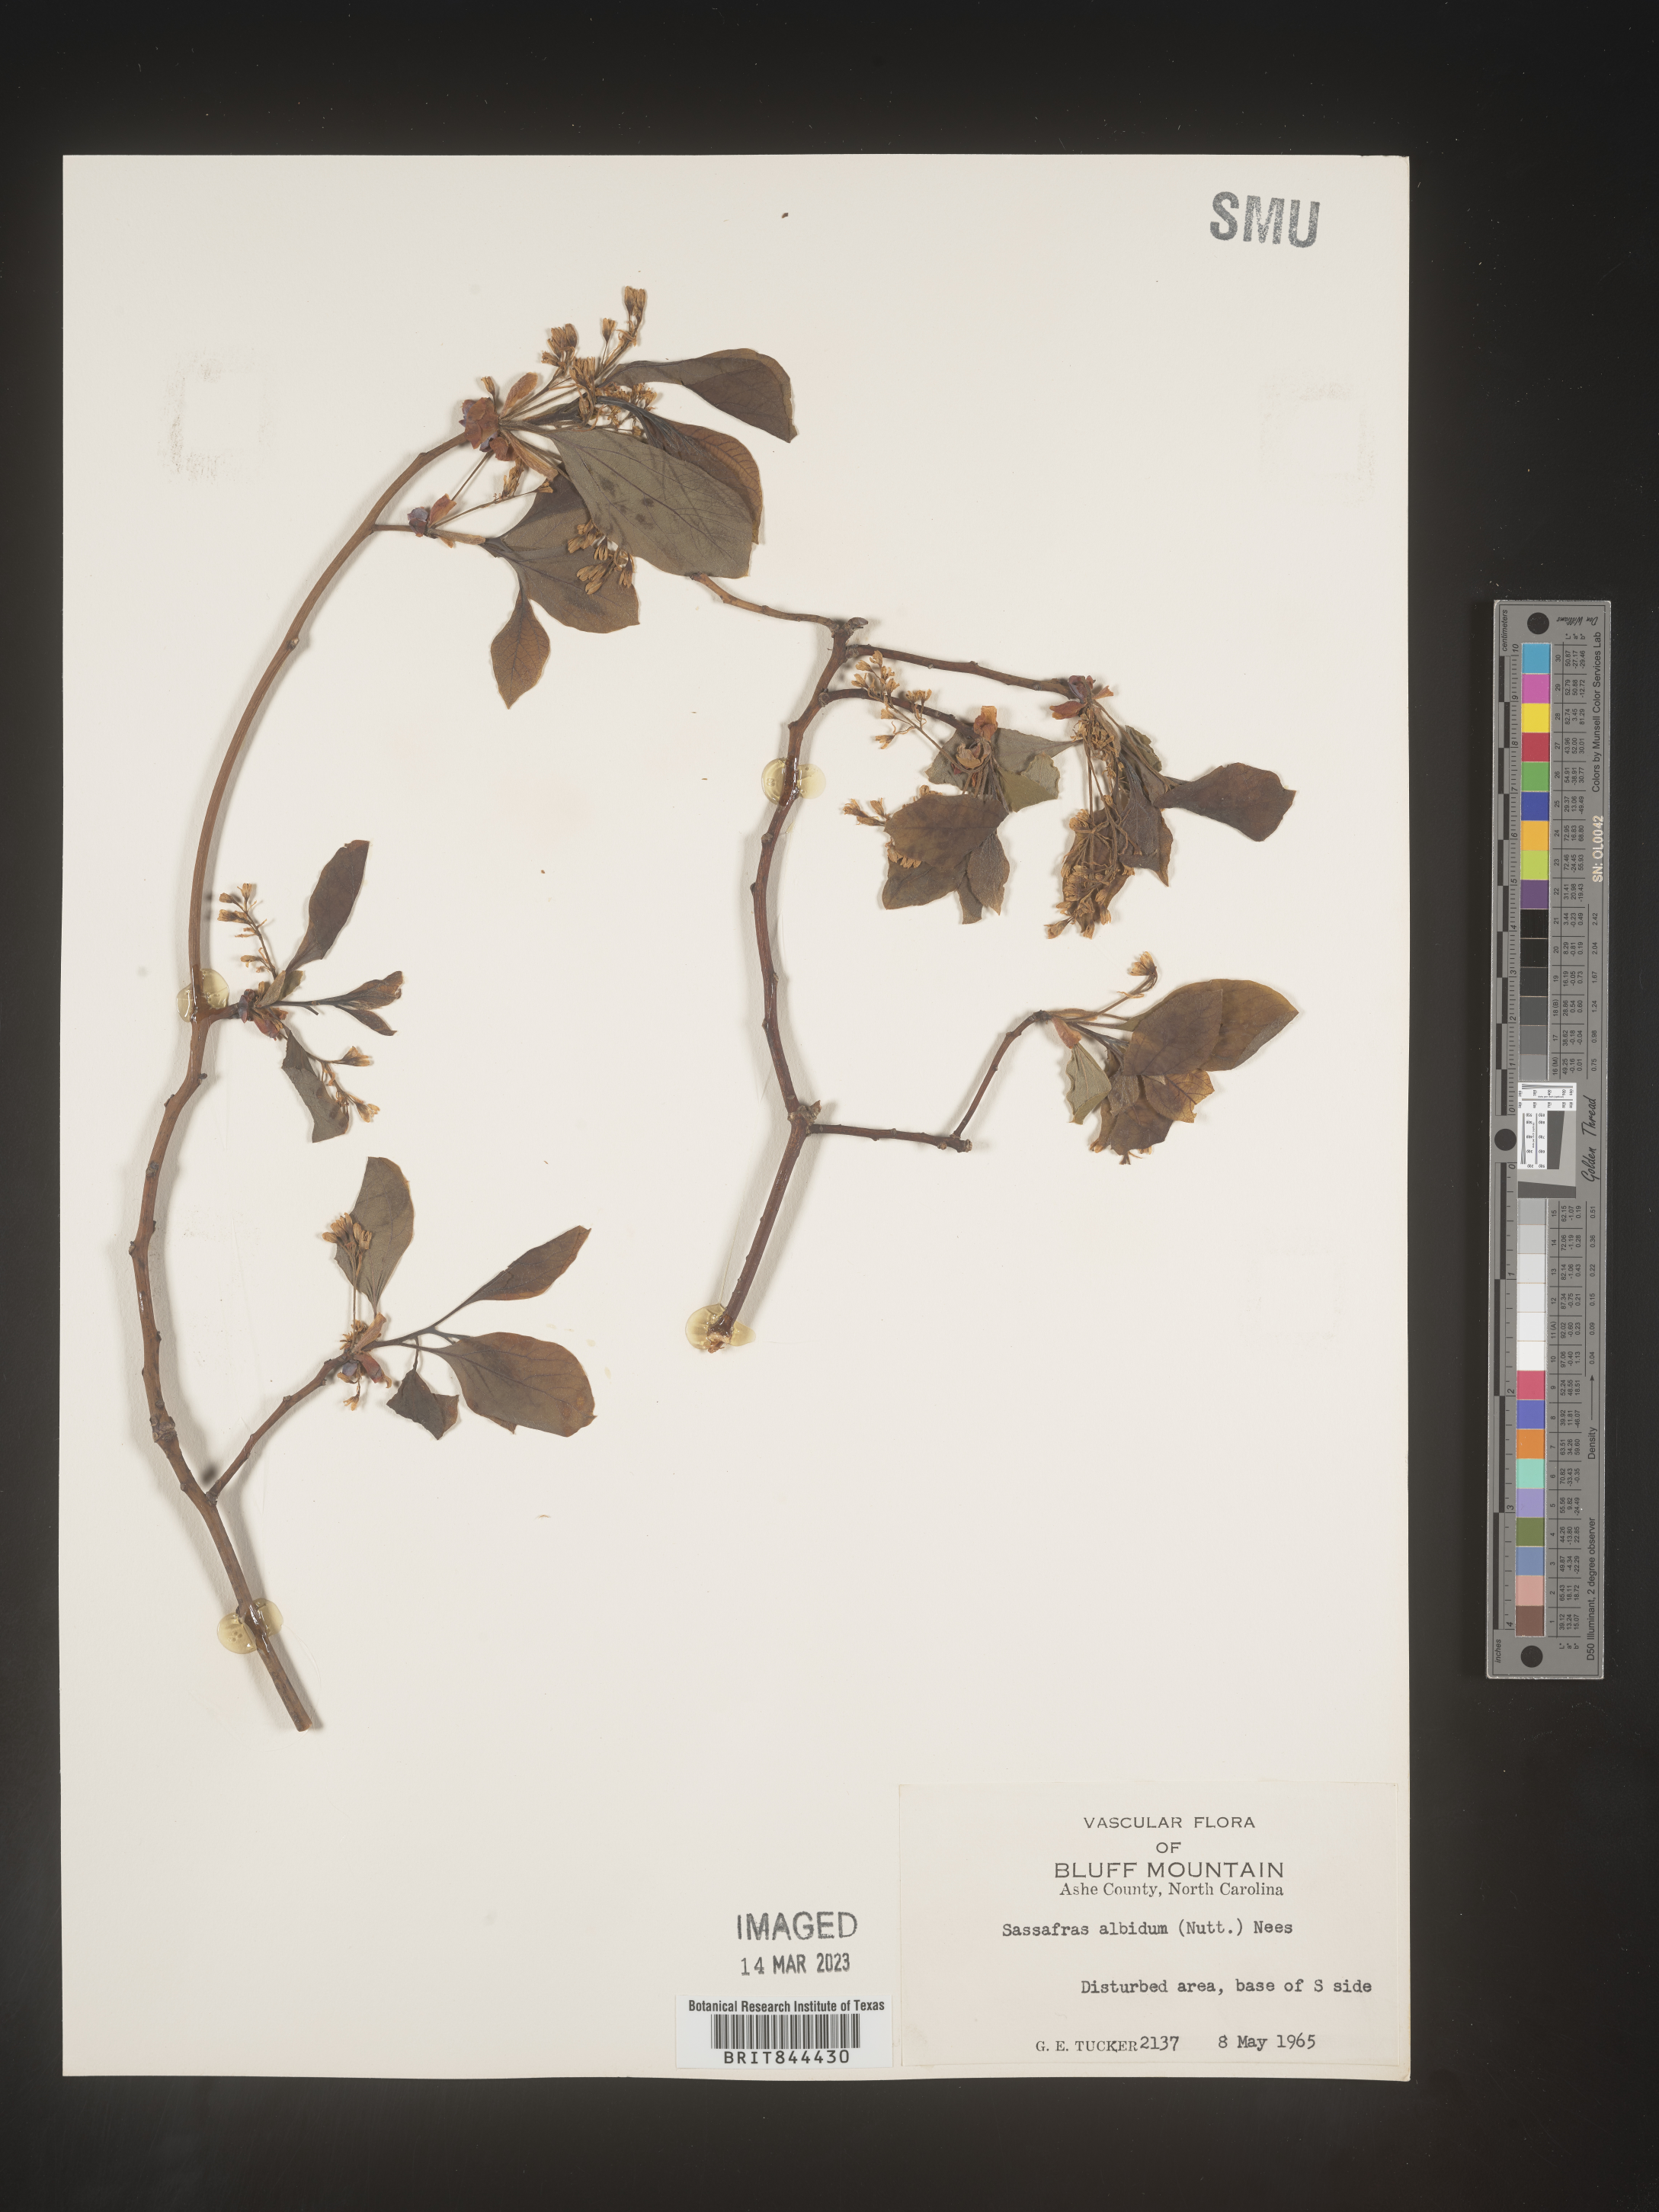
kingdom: Plantae
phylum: Tracheophyta
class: Magnoliopsida
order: Laurales
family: Lauraceae
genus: Sassafras
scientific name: Sassafras albidum
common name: Sassafras
